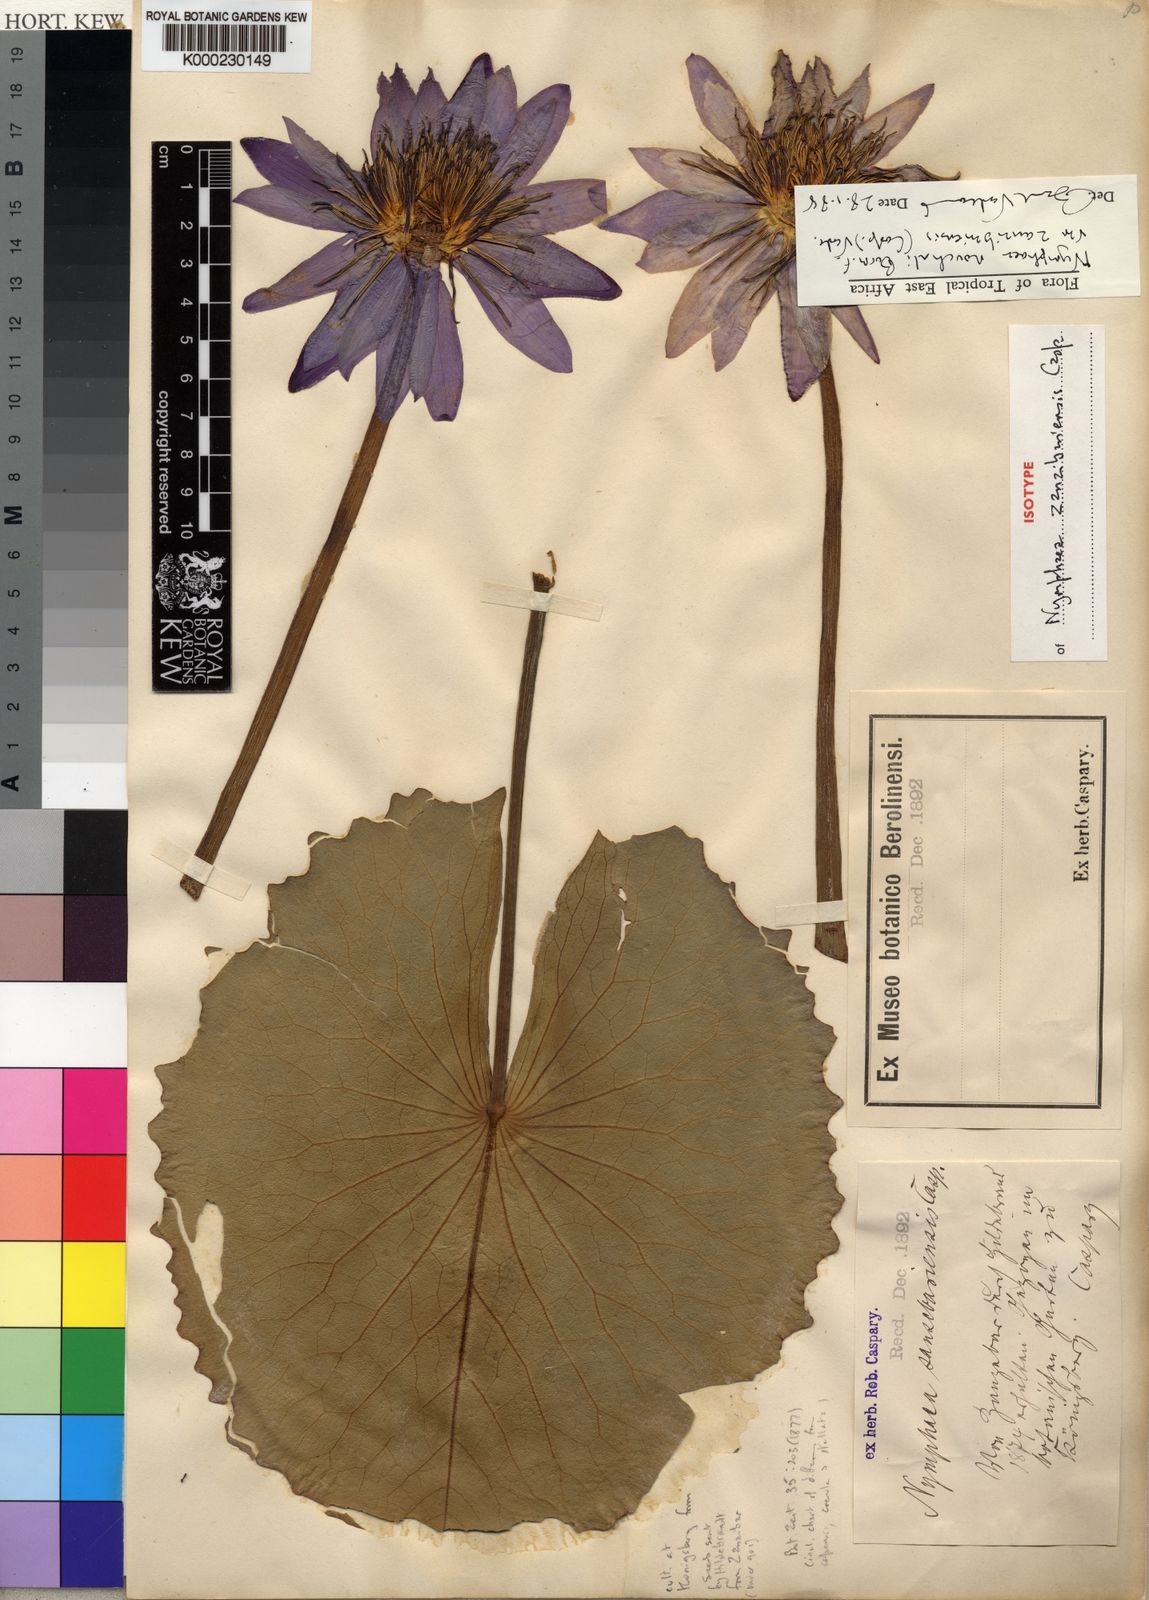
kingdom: Plantae
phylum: Tracheophyta
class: Magnoliopsida
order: Nymphaeales
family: Nymphaeaceae
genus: Nymphaea
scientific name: Nymphaea nouchali
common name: Blue lotus
